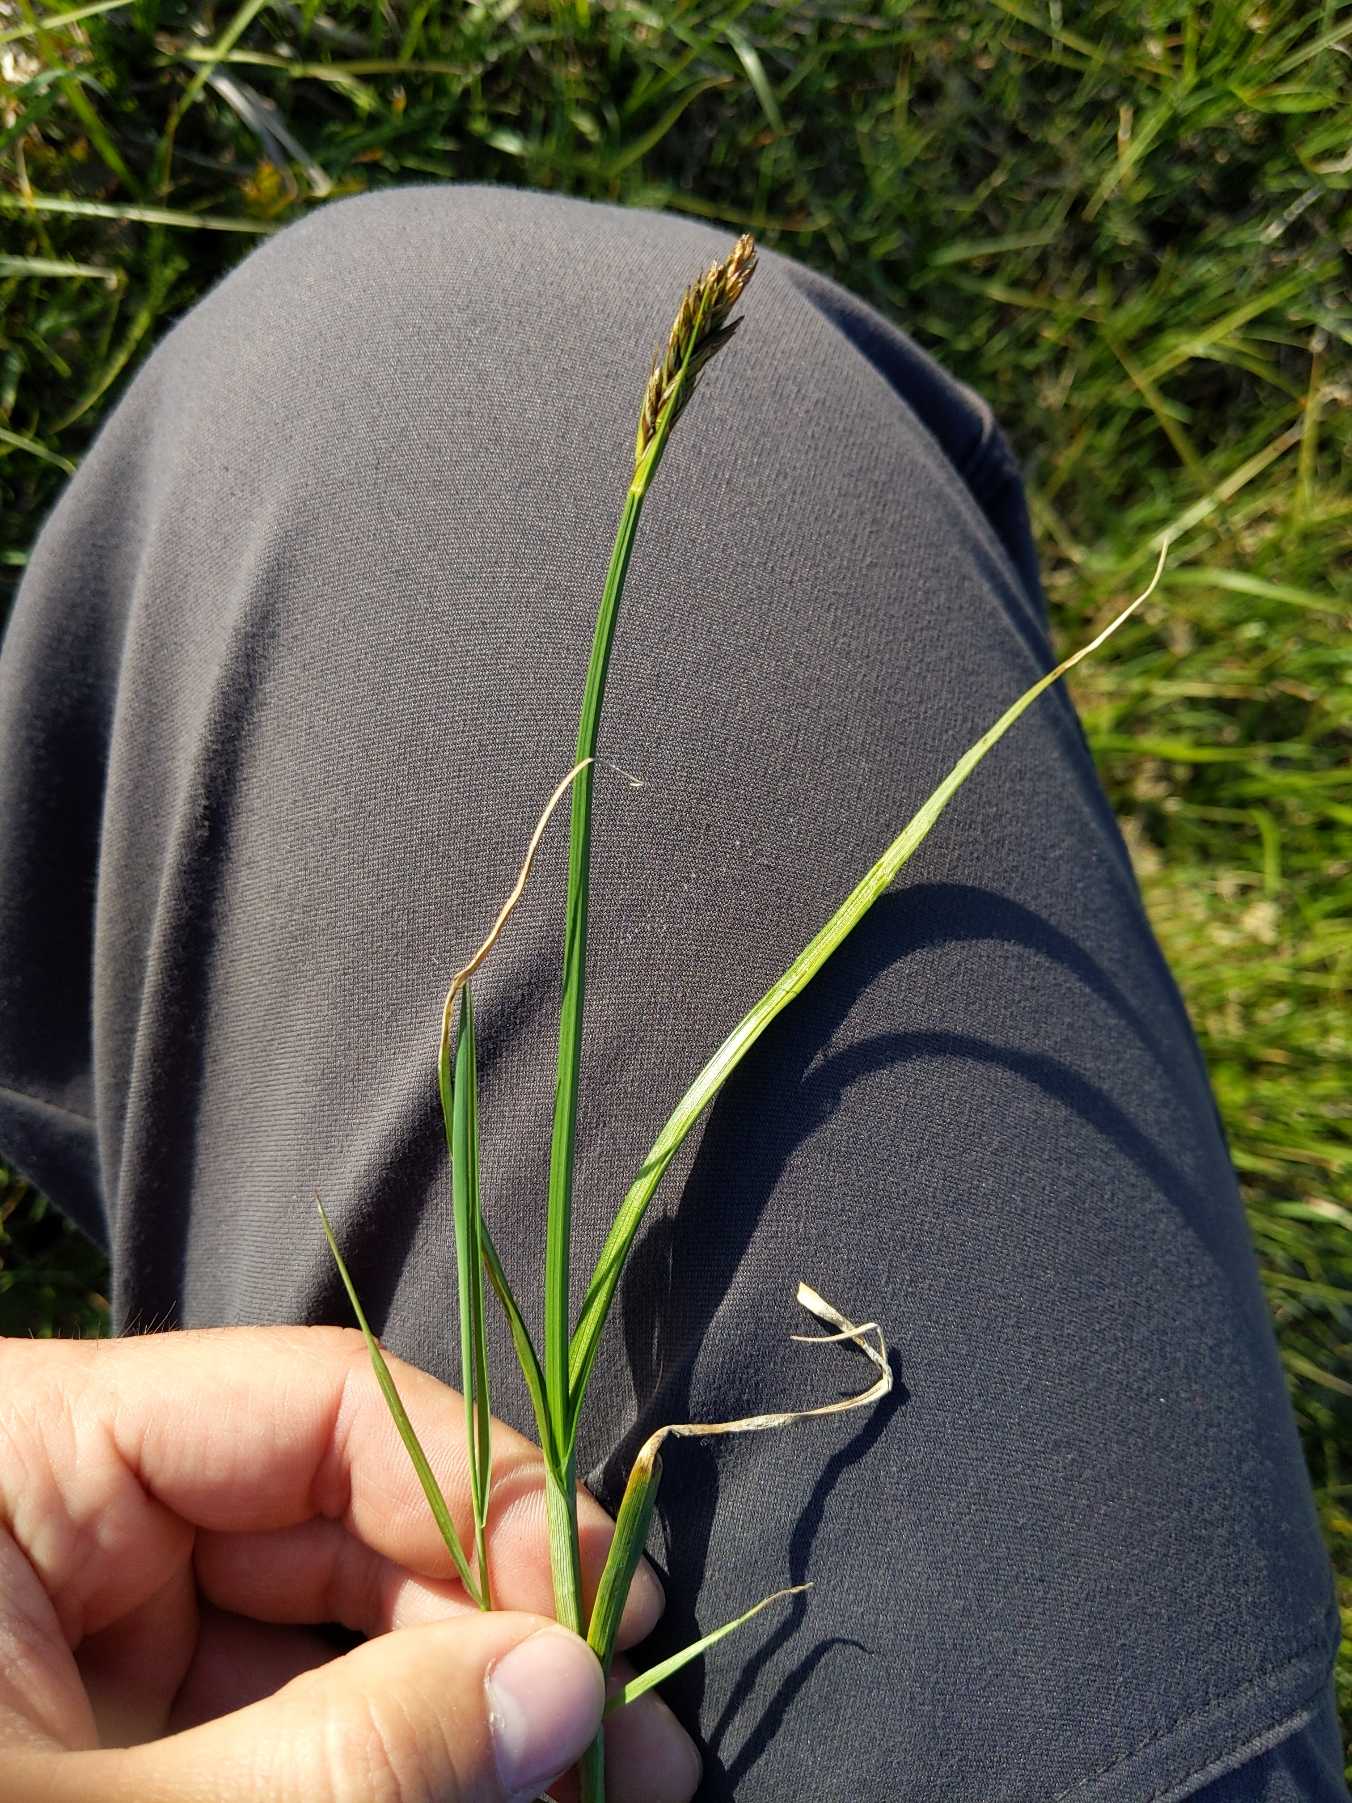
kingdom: Plantae
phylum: Tracheophyta
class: Liliopsida
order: Poales
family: Cyperaceae
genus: Carex
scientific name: Carex disticha
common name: Toradet star
